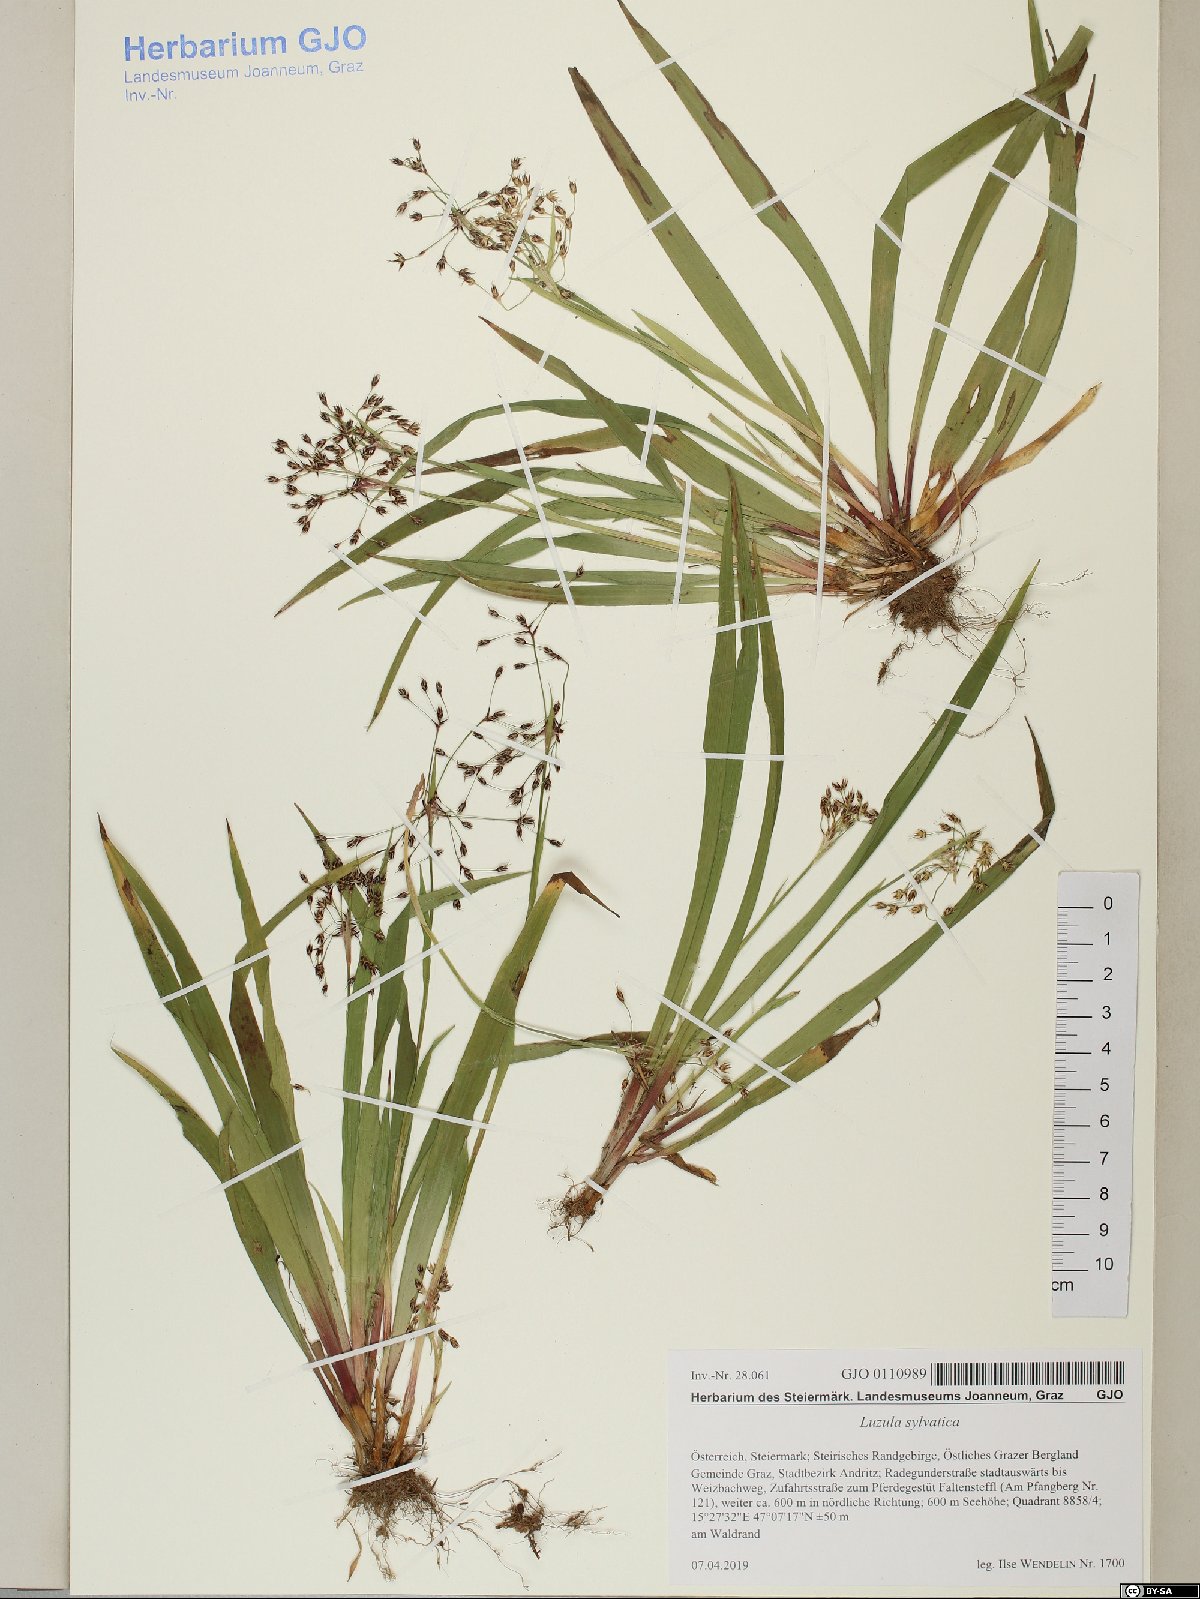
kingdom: Plantae
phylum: Tracheophyta
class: Liliopsida
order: Poales
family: Juncaceae
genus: Luzula
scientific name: Luzula sylvatica
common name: Great wood-rush
